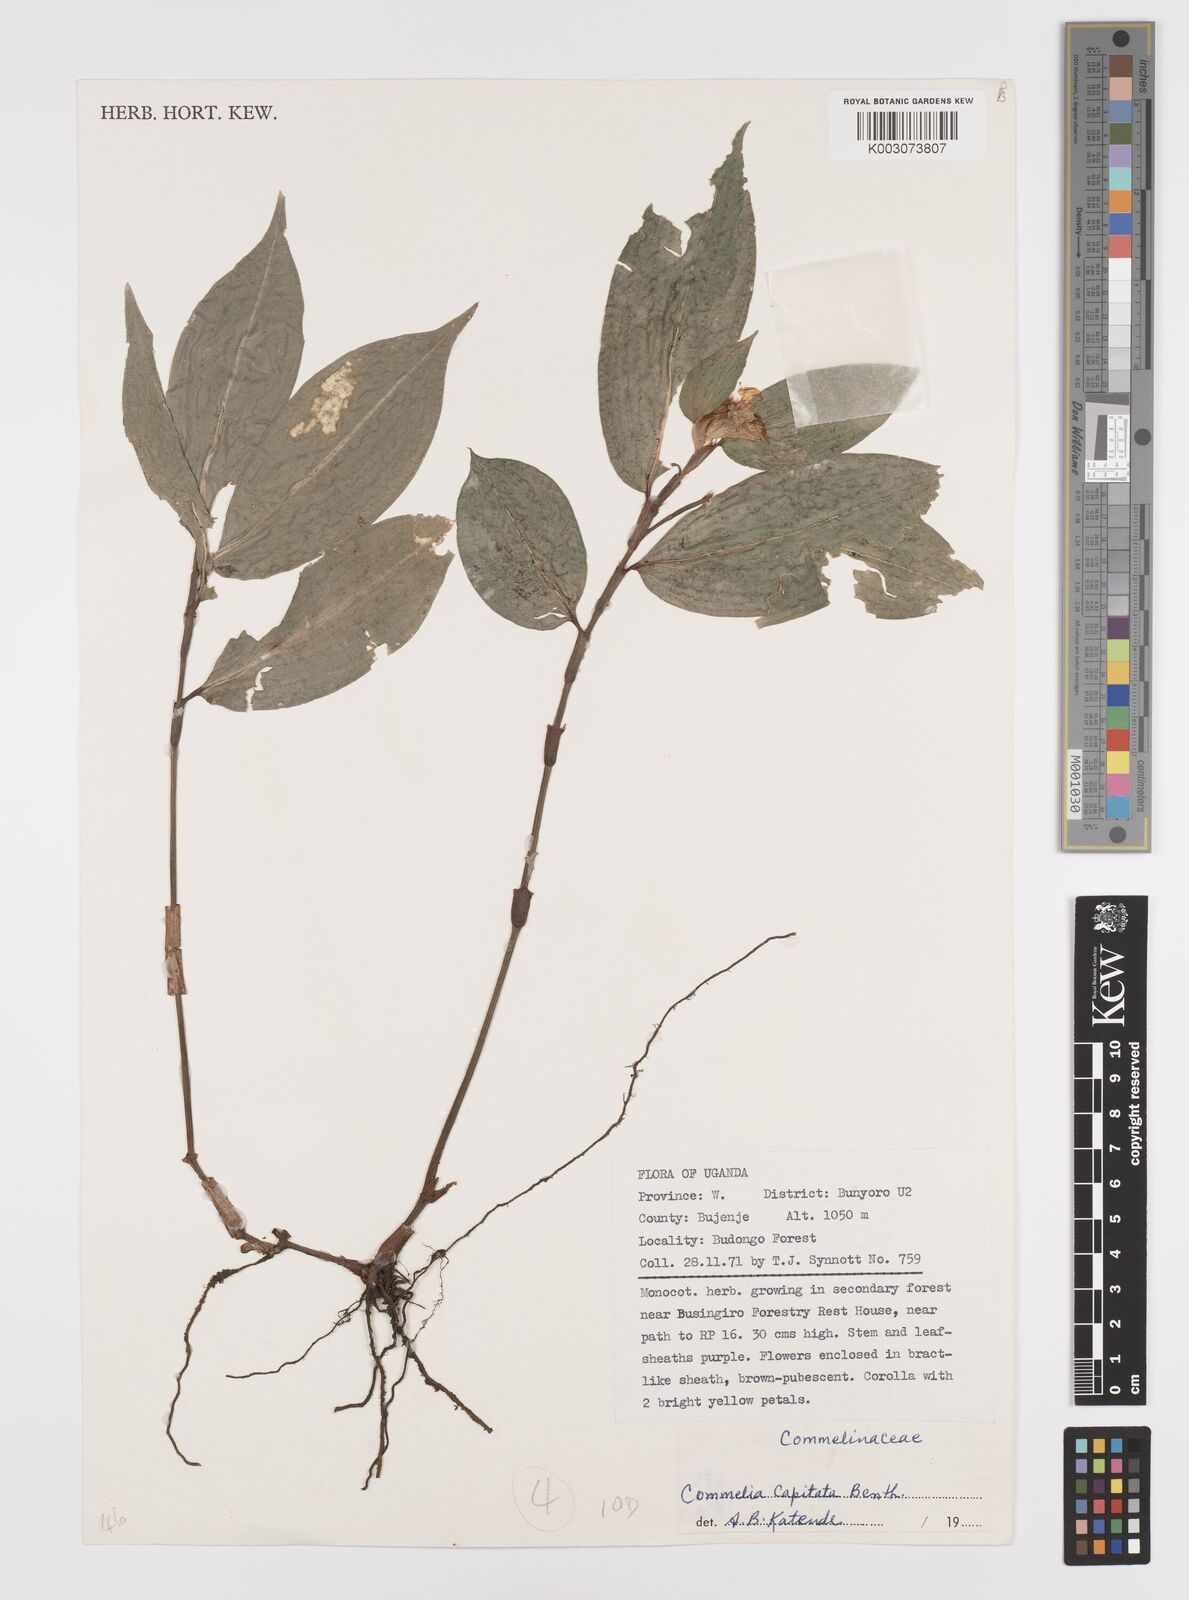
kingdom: Plantae
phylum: Tracheophyta
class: Liliopsida
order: Commelinales
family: Commelinaceae
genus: Commelina
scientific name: Commelina capitata
